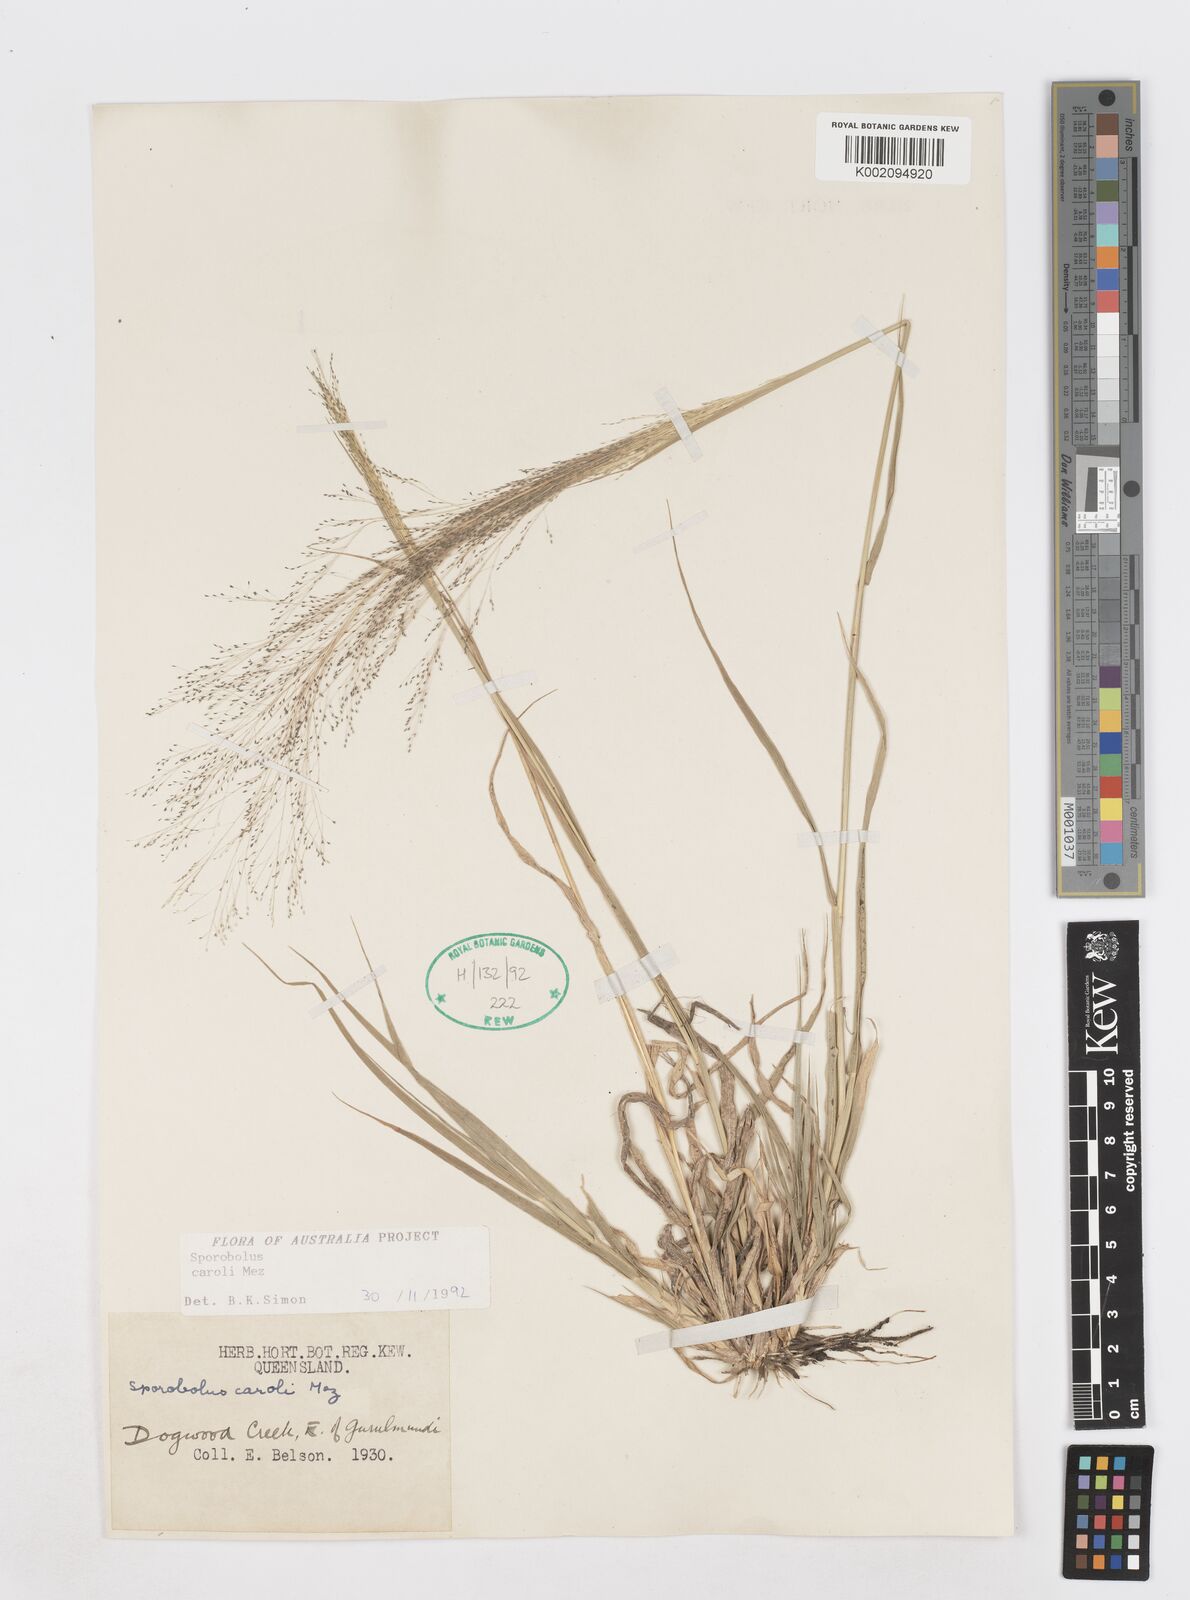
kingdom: Plantae
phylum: Tracheophyta
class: Liliopsida
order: Poales
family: Poaceae
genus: Sporobolus
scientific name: Sporobolus caroli
